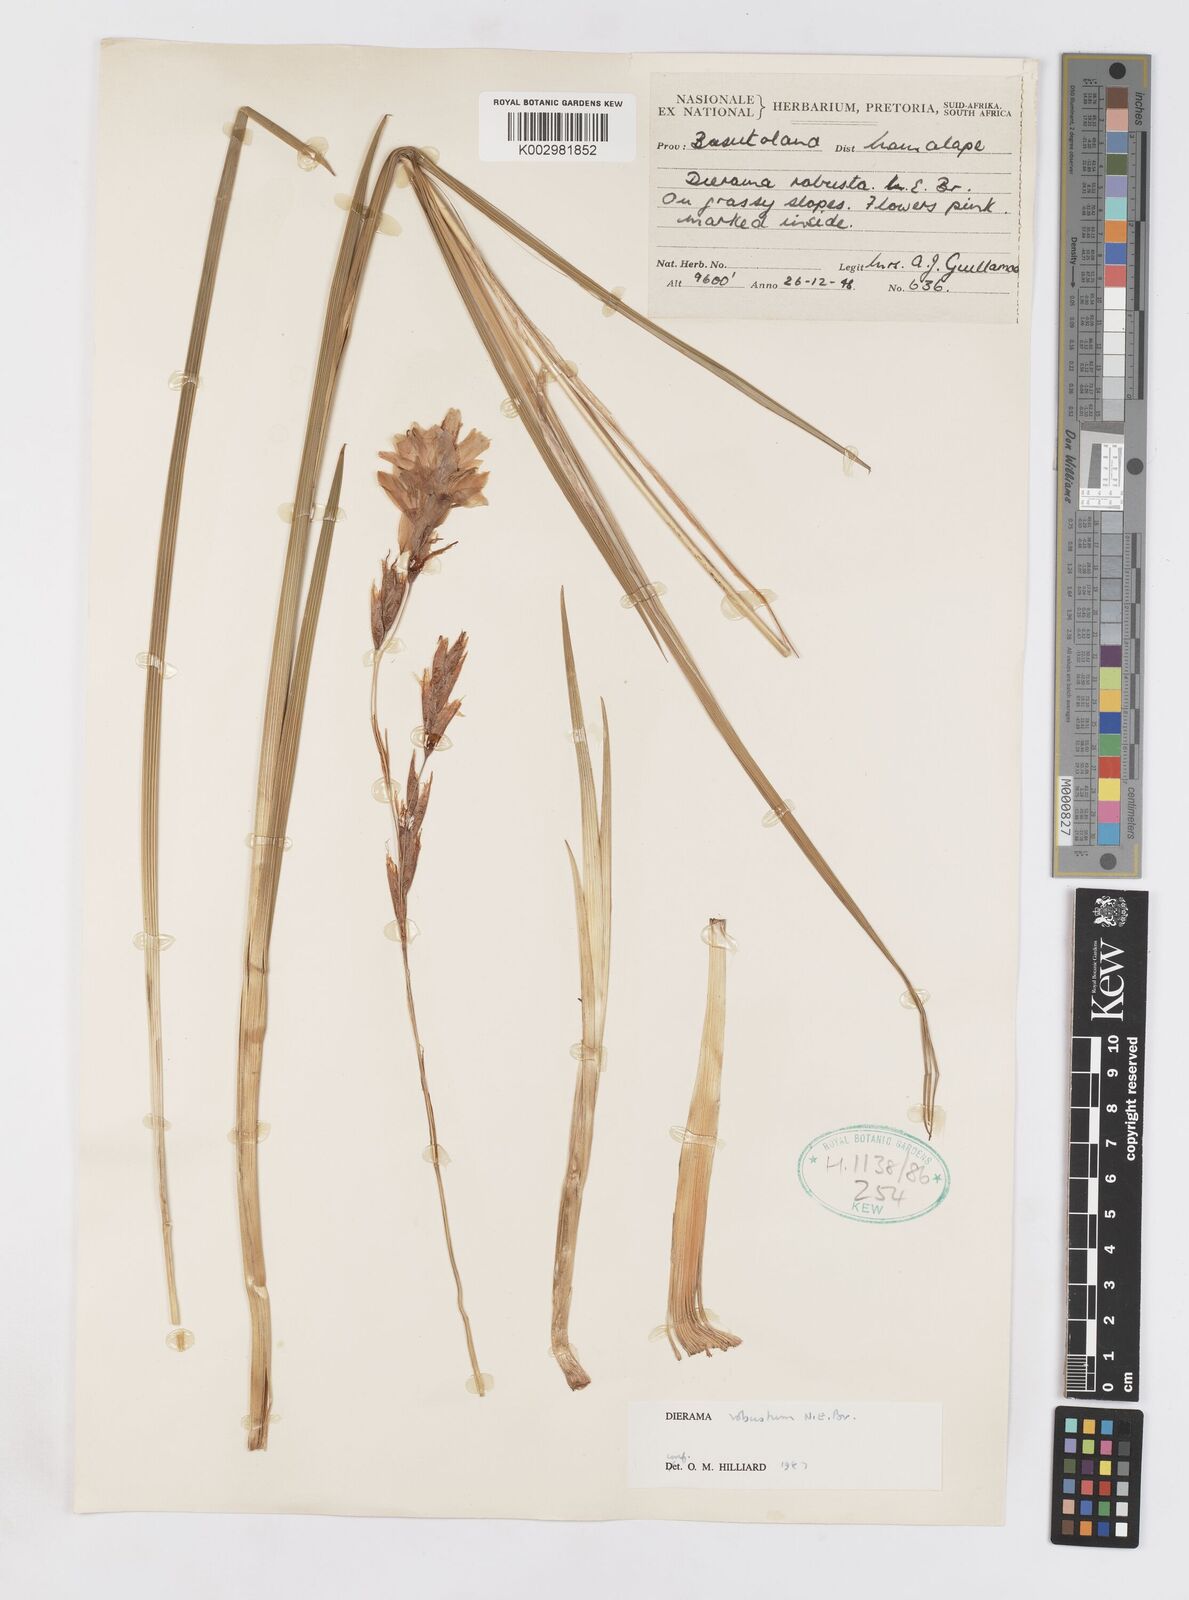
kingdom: Plantae
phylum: Tracheophyta
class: Liliopsida
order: Asparagales
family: Iridaceae
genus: Dierama
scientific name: Dierama robustum
